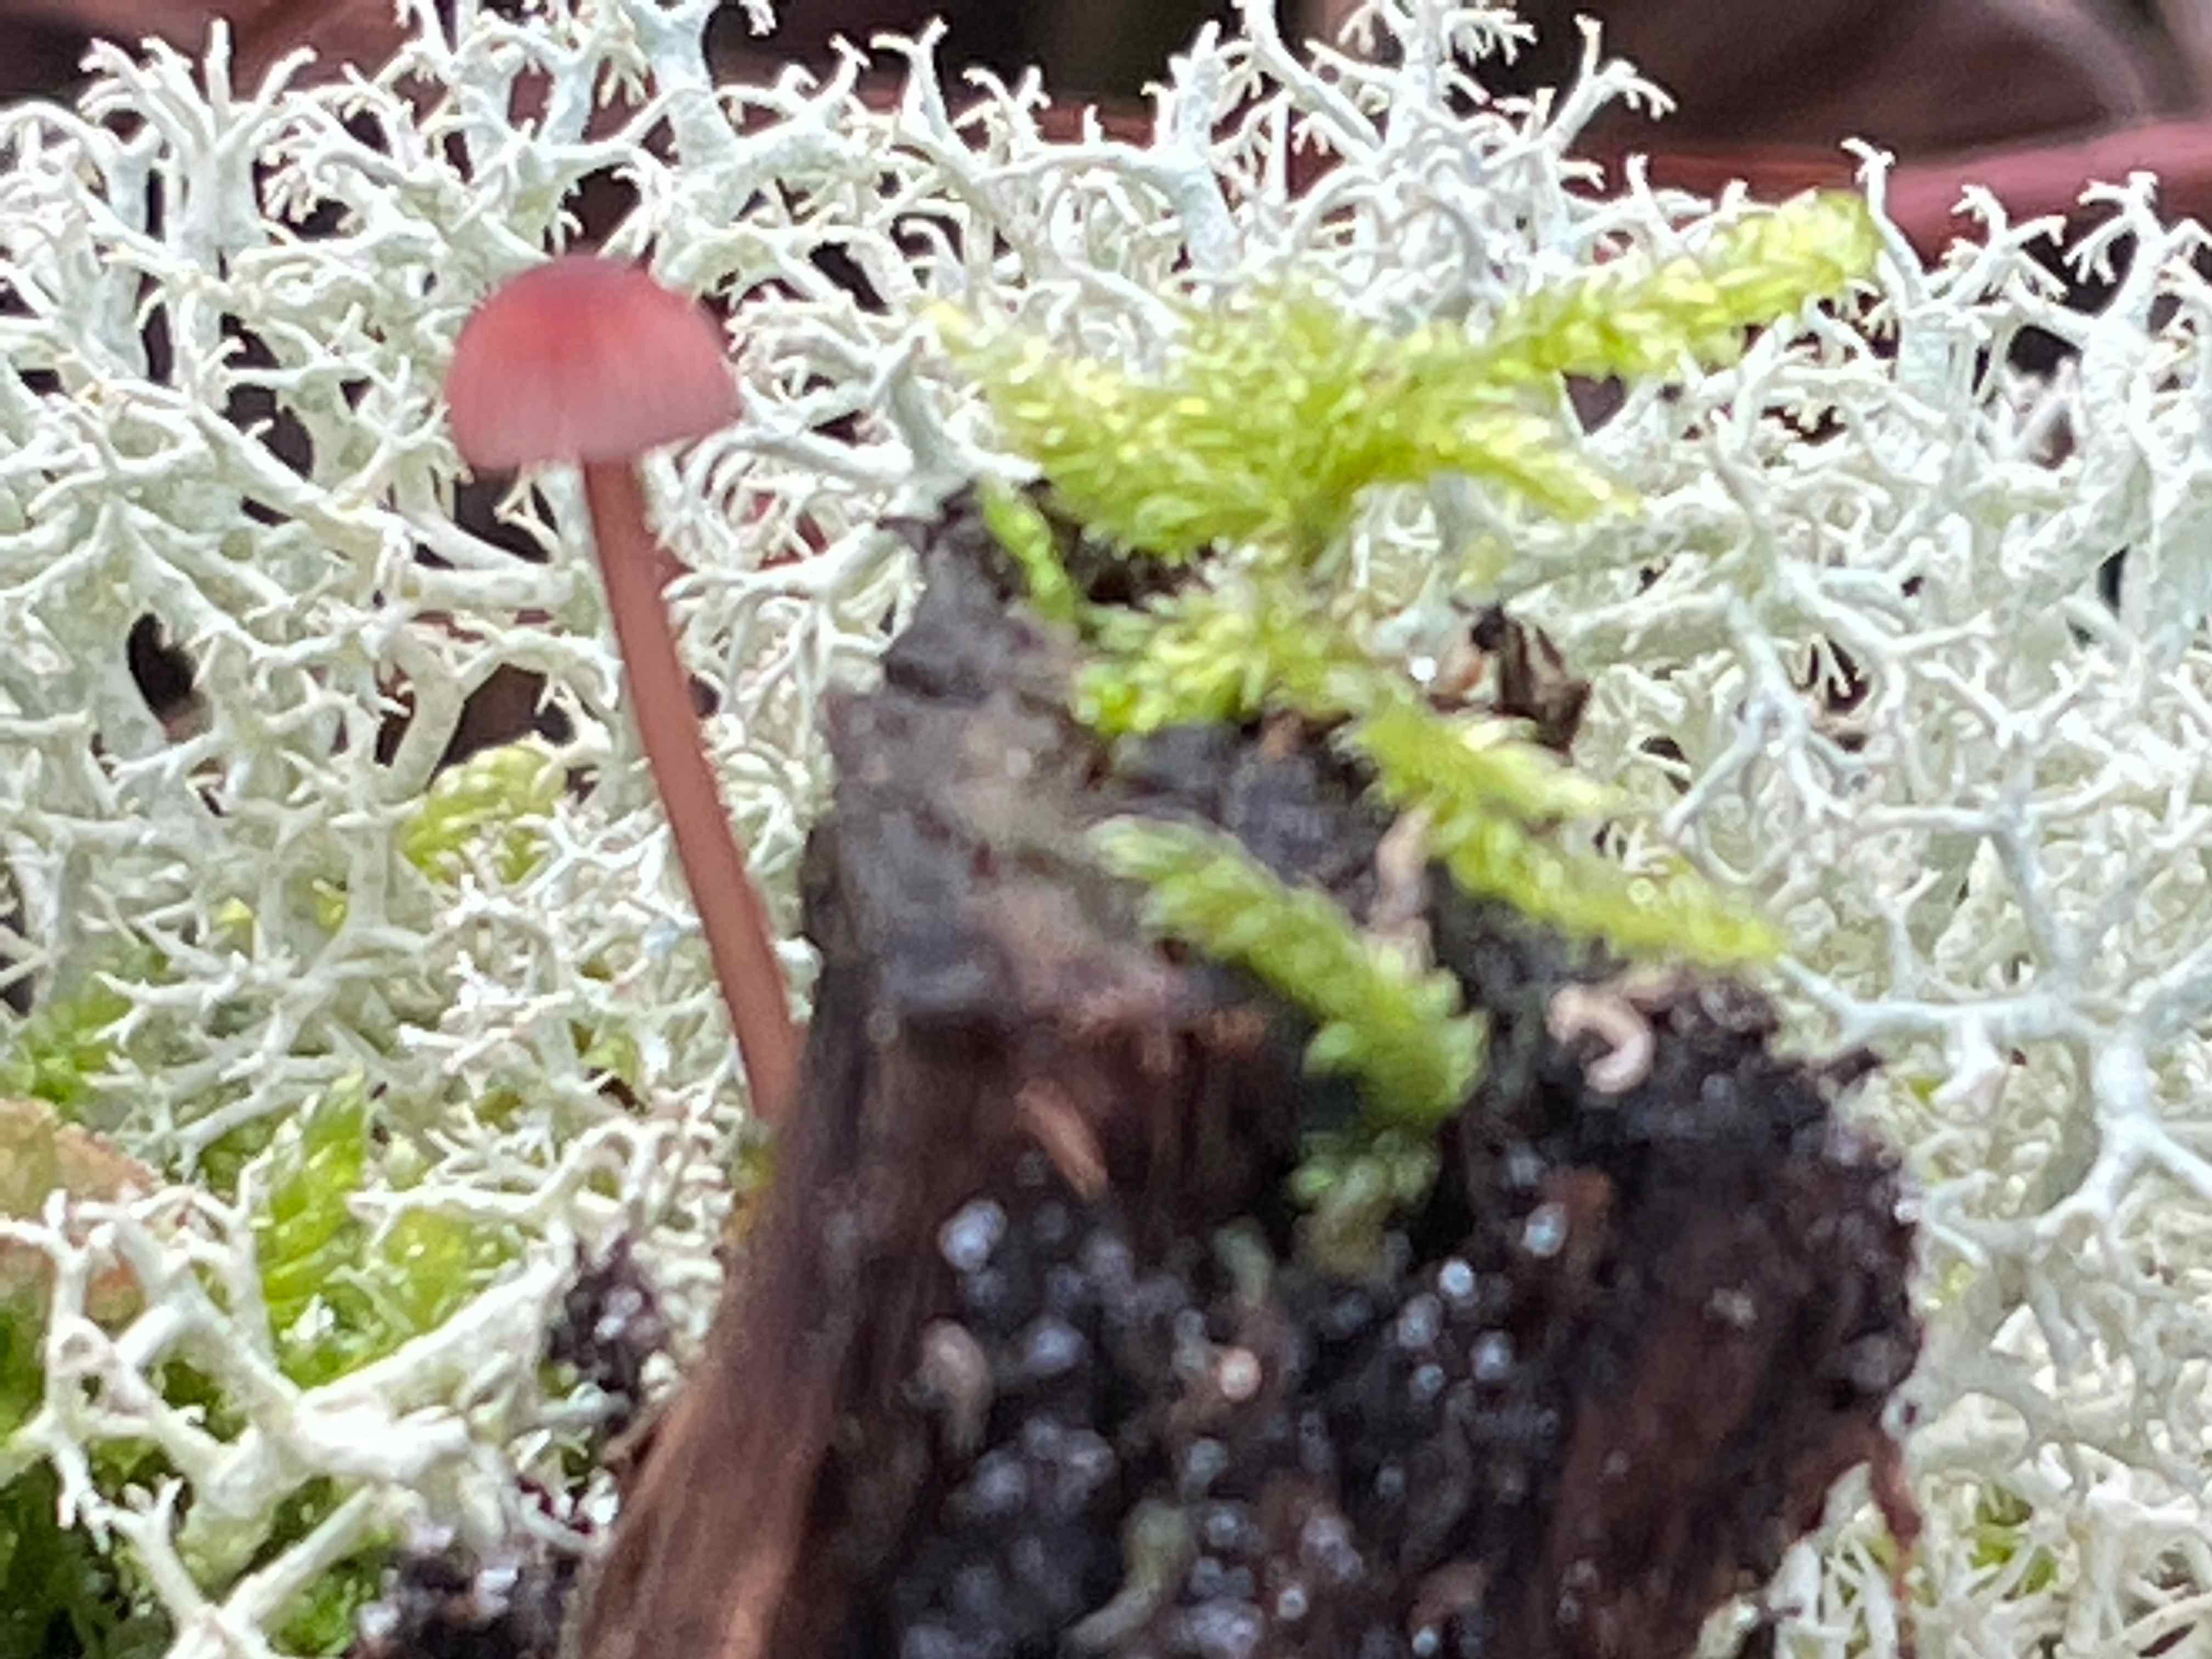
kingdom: Fungi
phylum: Basidiomycota
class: Agaricomycetes
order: Agaricales
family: Mycenaceae
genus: Mycena
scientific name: Mycena sanguinolenta
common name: rødmælket huesvamp
